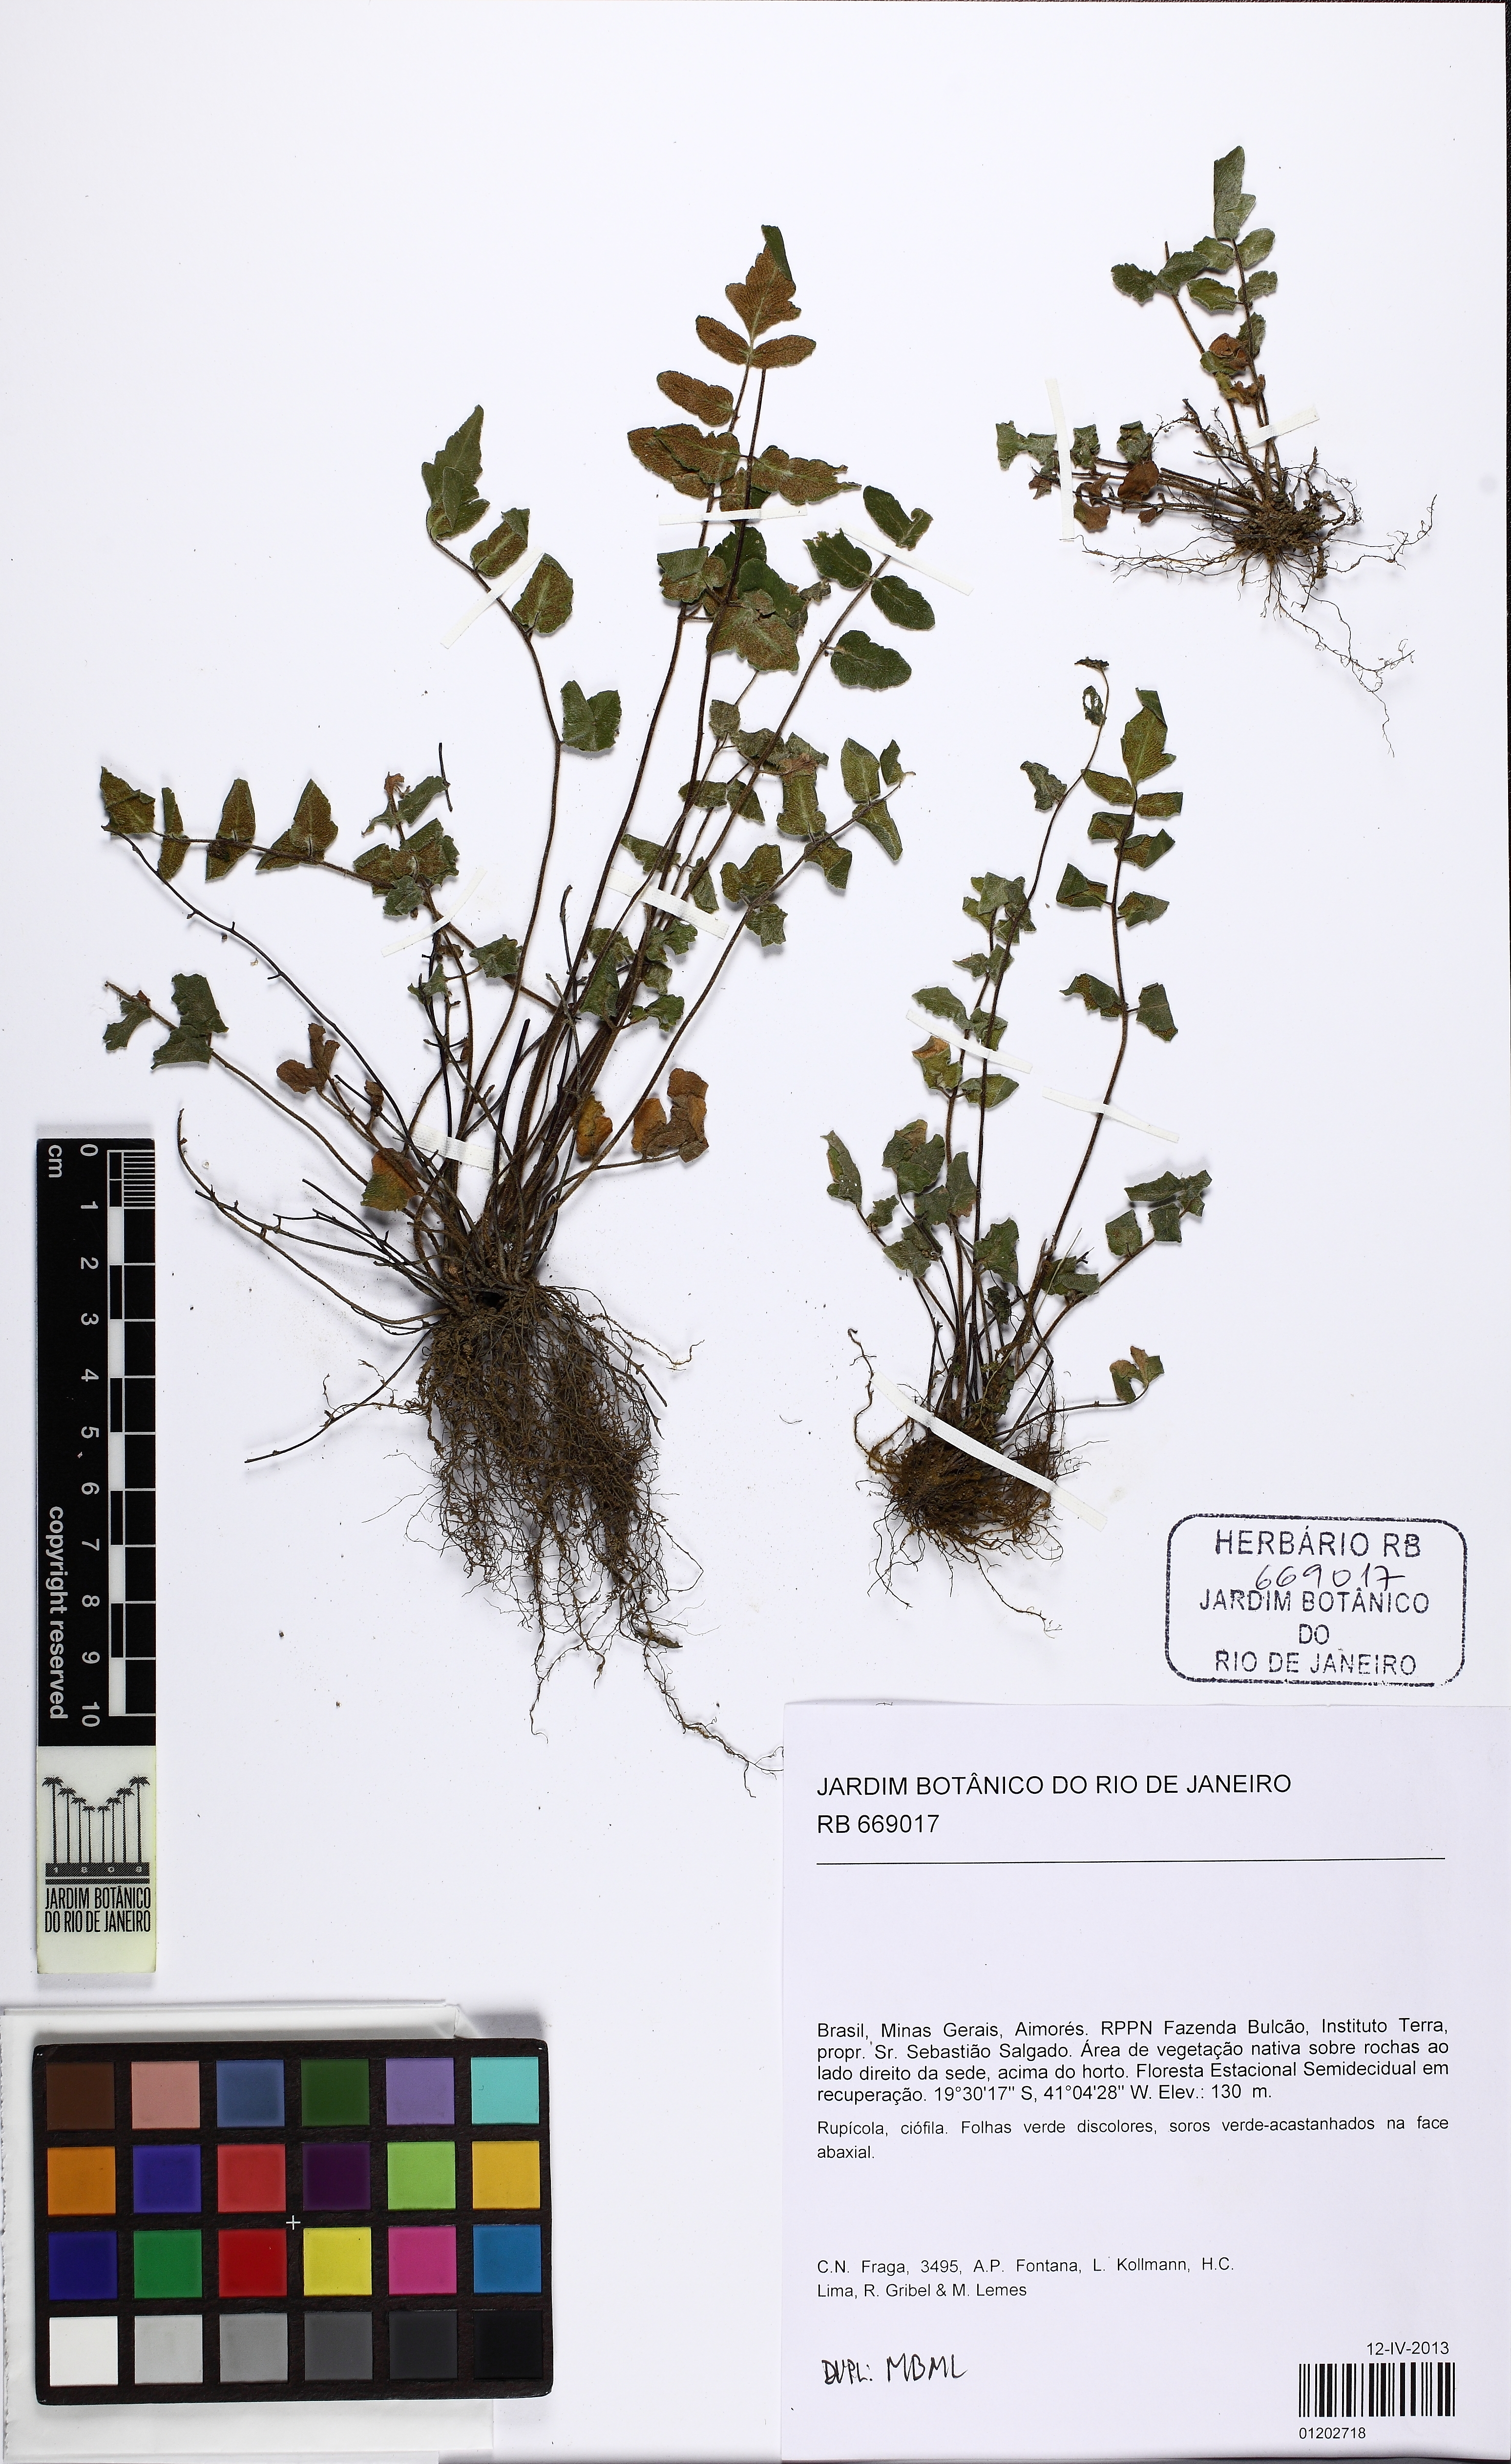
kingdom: Plantae
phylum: Tracheophyta
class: Polypodiopsida
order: Polypodiales
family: Pteridaceae
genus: Hemionitis
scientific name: Hemionitis tomentosa
